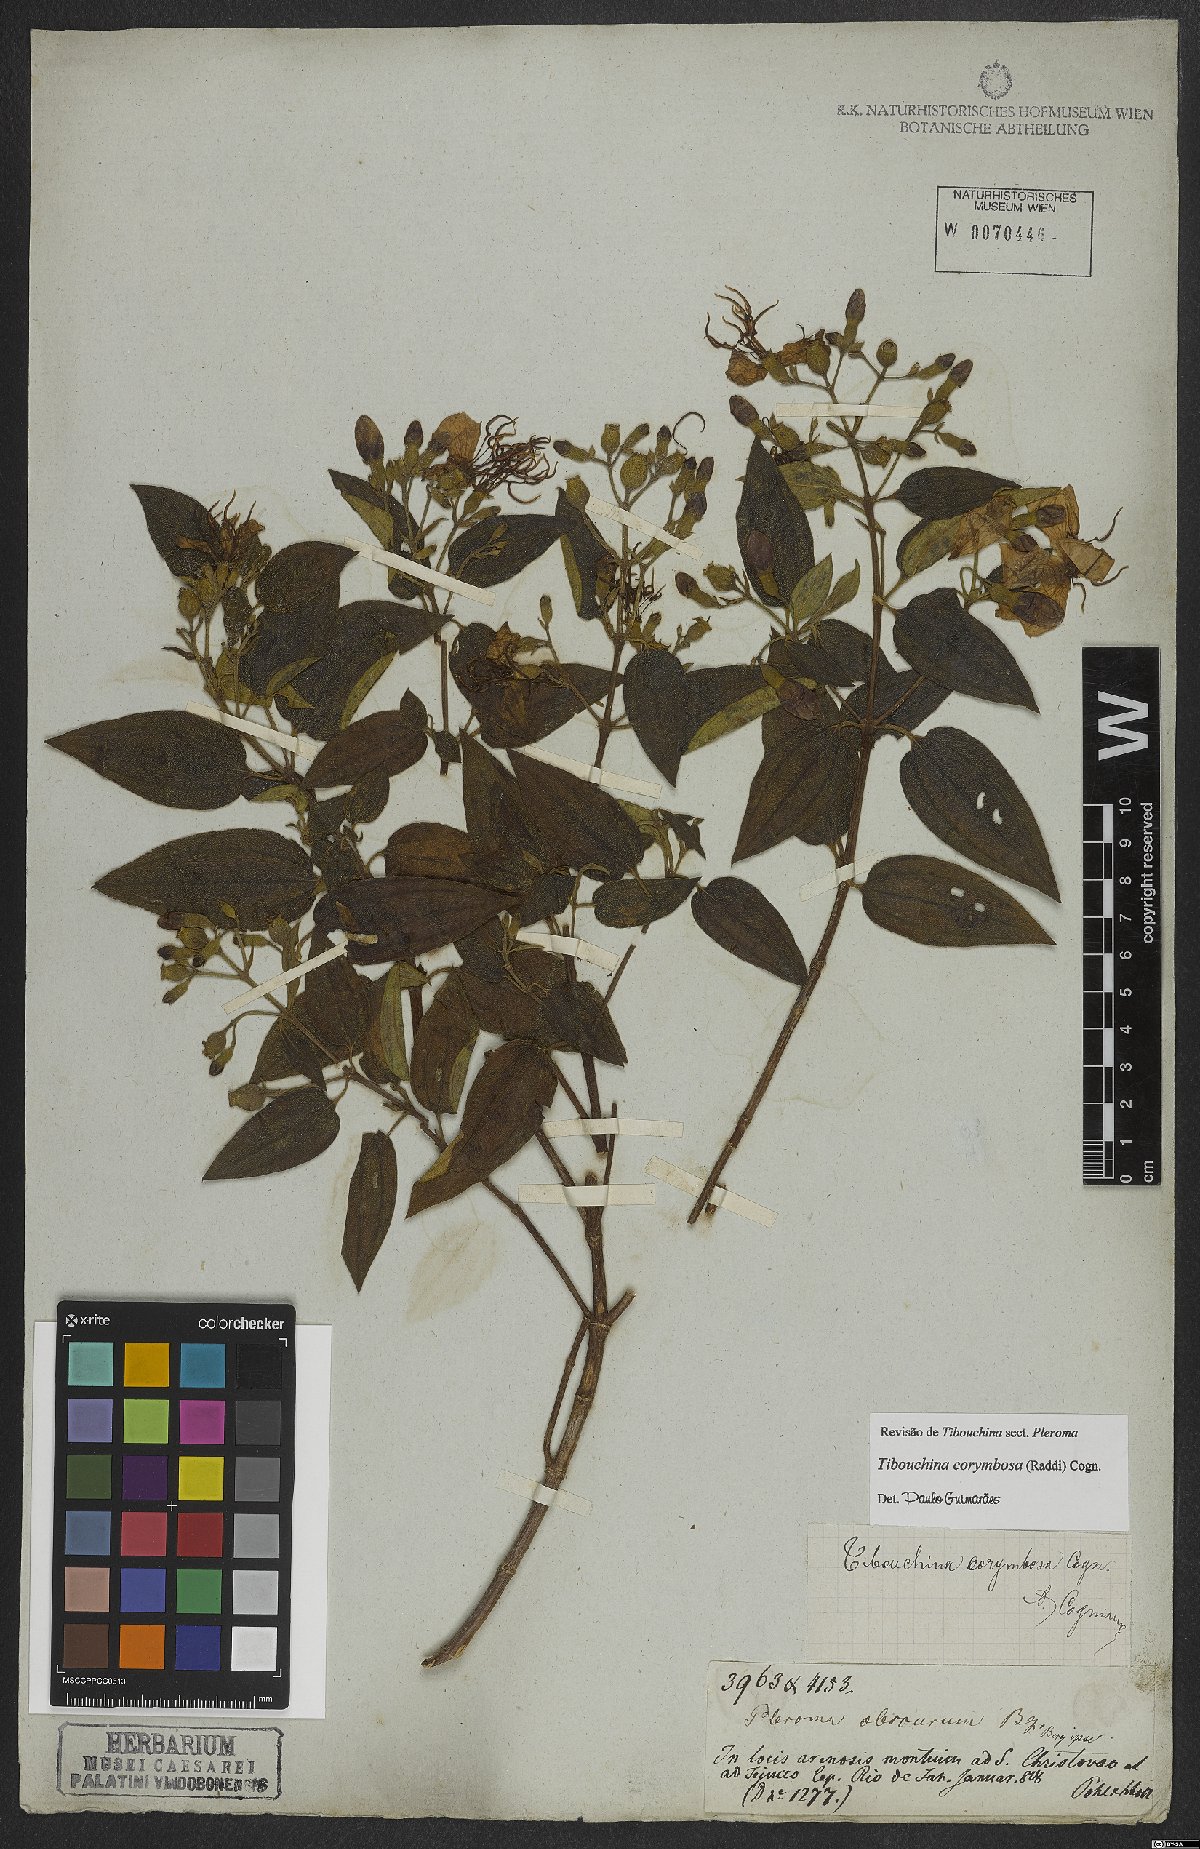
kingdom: Plantae
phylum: Tracheophyta
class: Magnoliopsida
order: Myrtales
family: Melastomataceae
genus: Pleroma
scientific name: Pleroma vimineum
